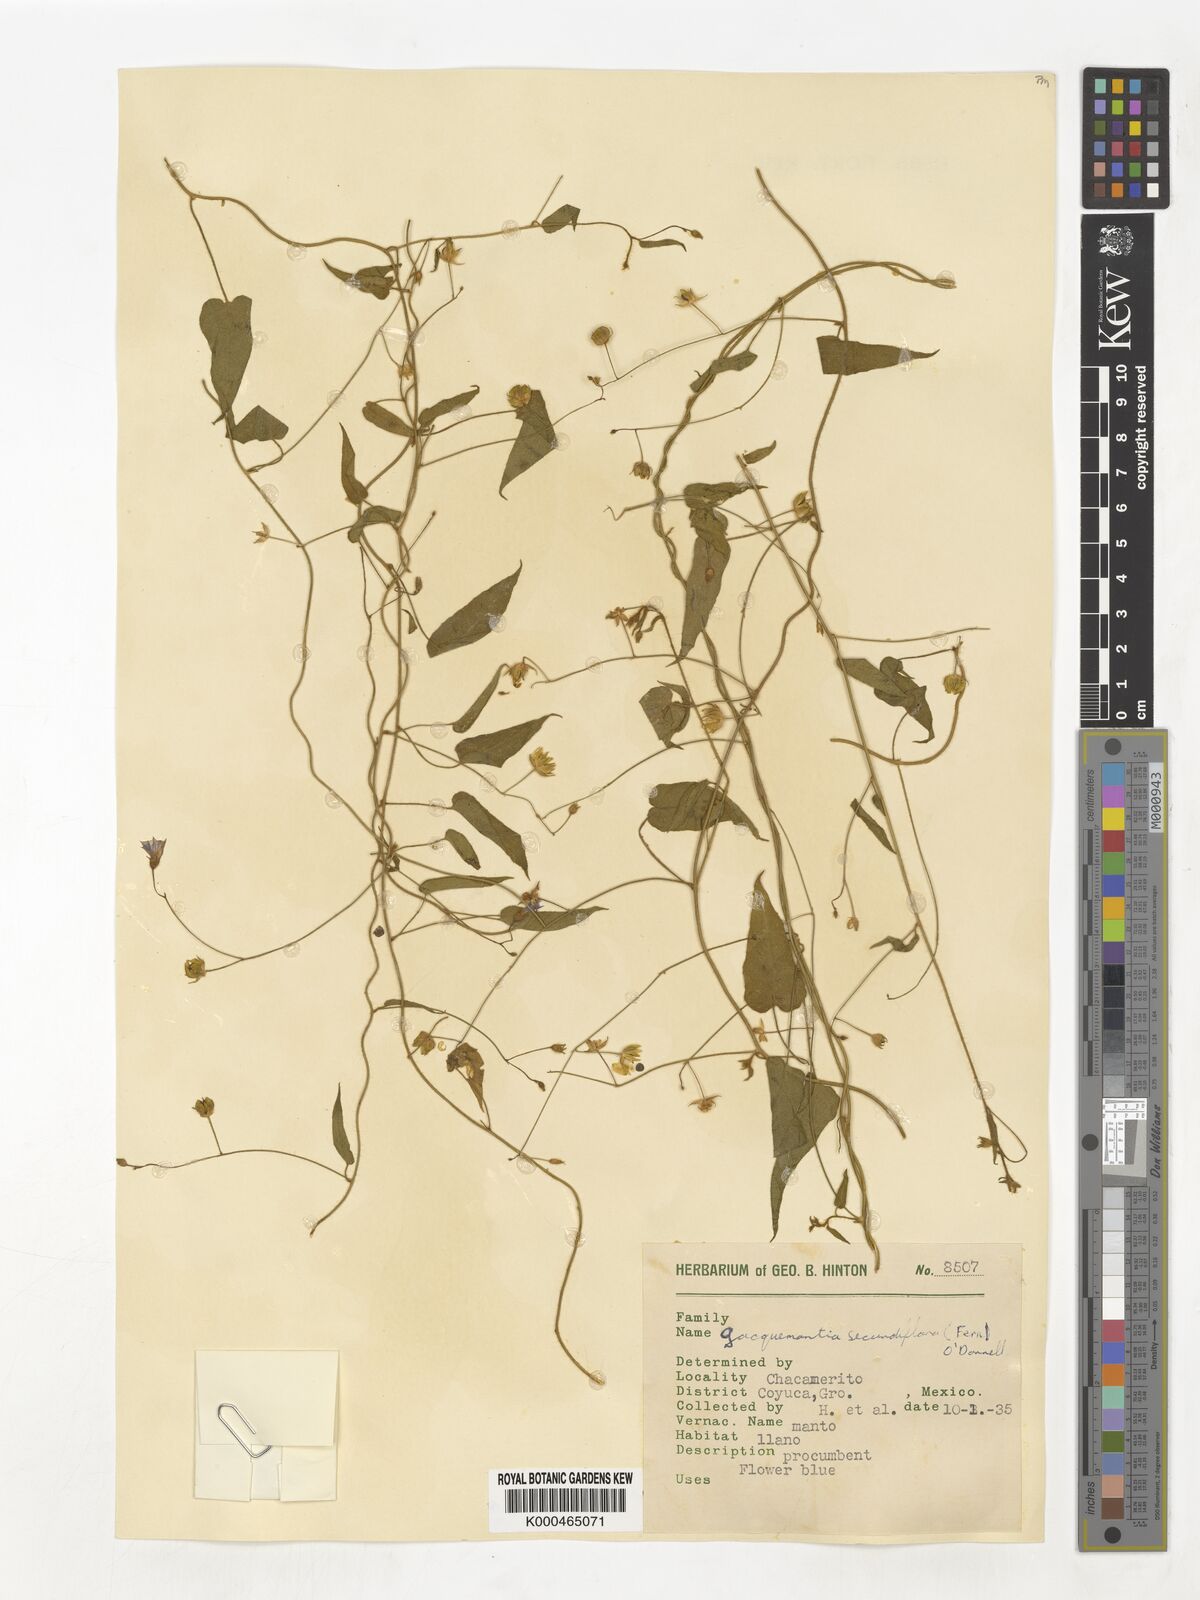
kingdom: Plantae
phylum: Tracheophyta
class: Magnoliopsida
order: Solanales
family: Convolvulaceae
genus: Jacquemontia
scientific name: Jacquemontia agrestis
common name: Midnightblue clustervine
